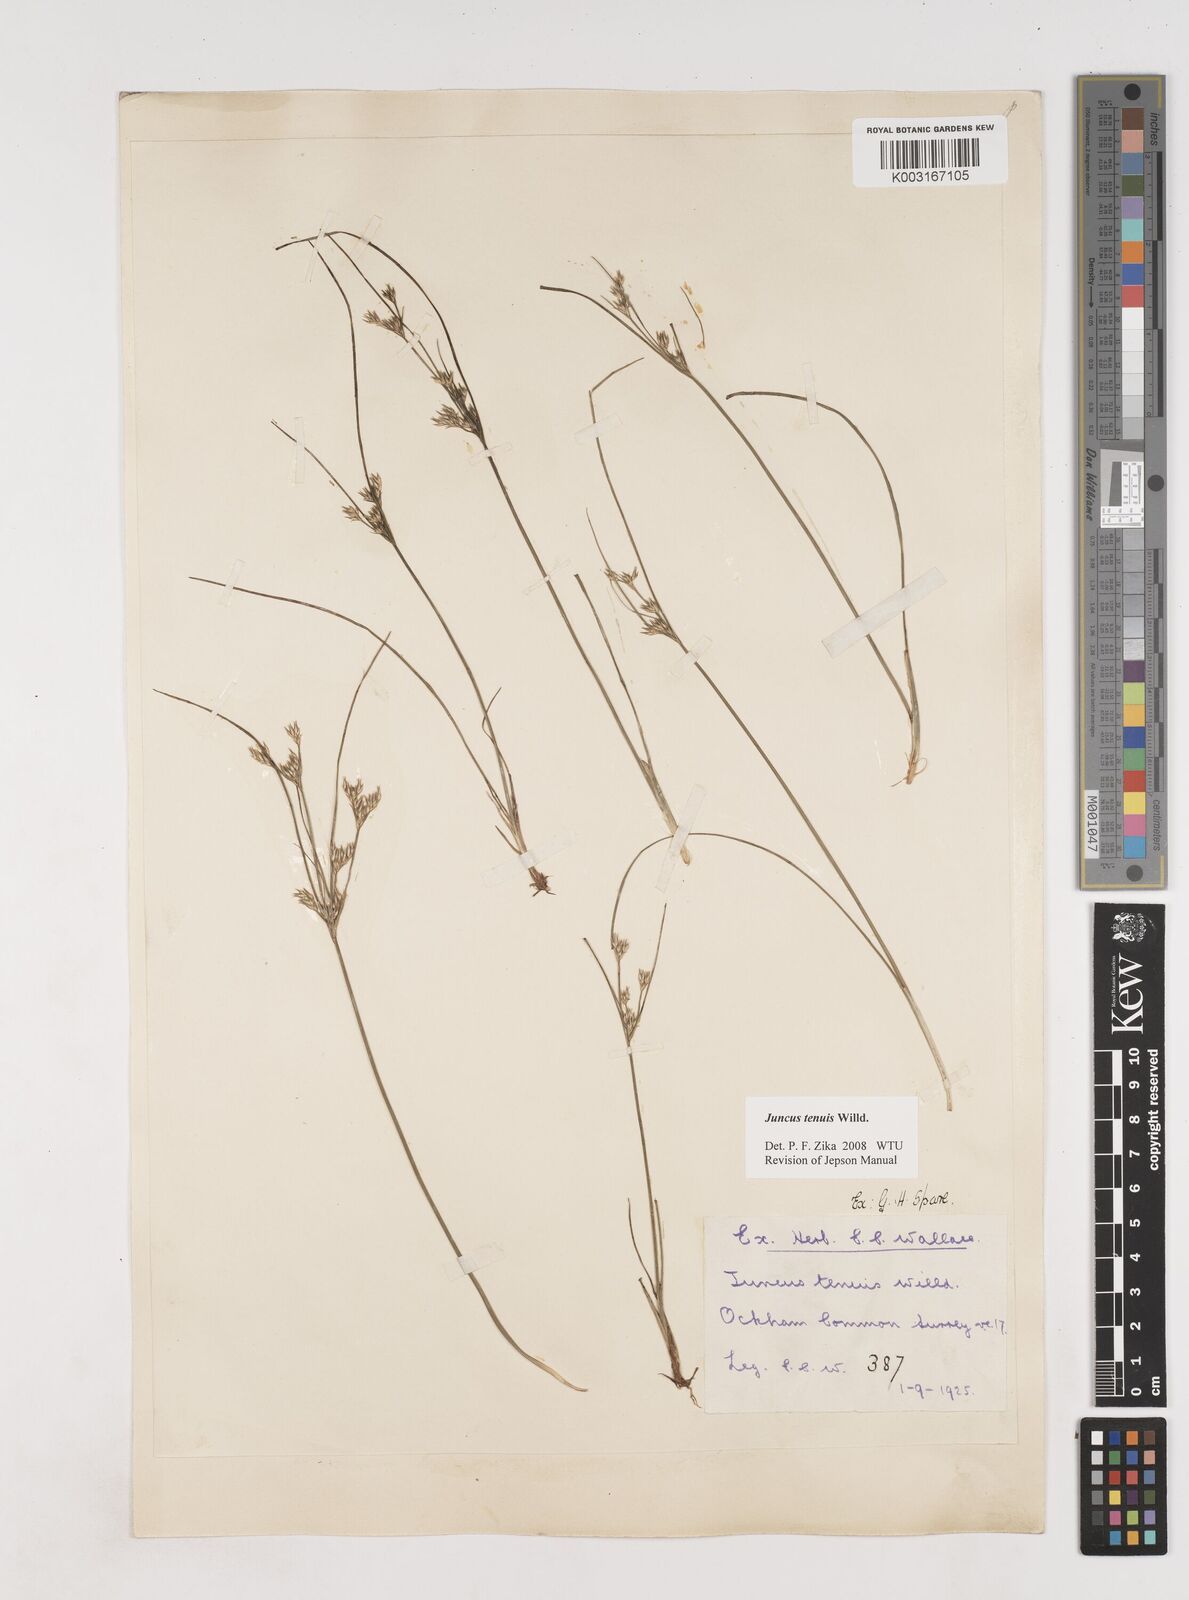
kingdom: Plantae
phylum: Tracheophyta
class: Liliopsida
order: Poales
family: Juncaceae
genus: Juncus
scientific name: Juncus occidentalis
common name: Western rush
